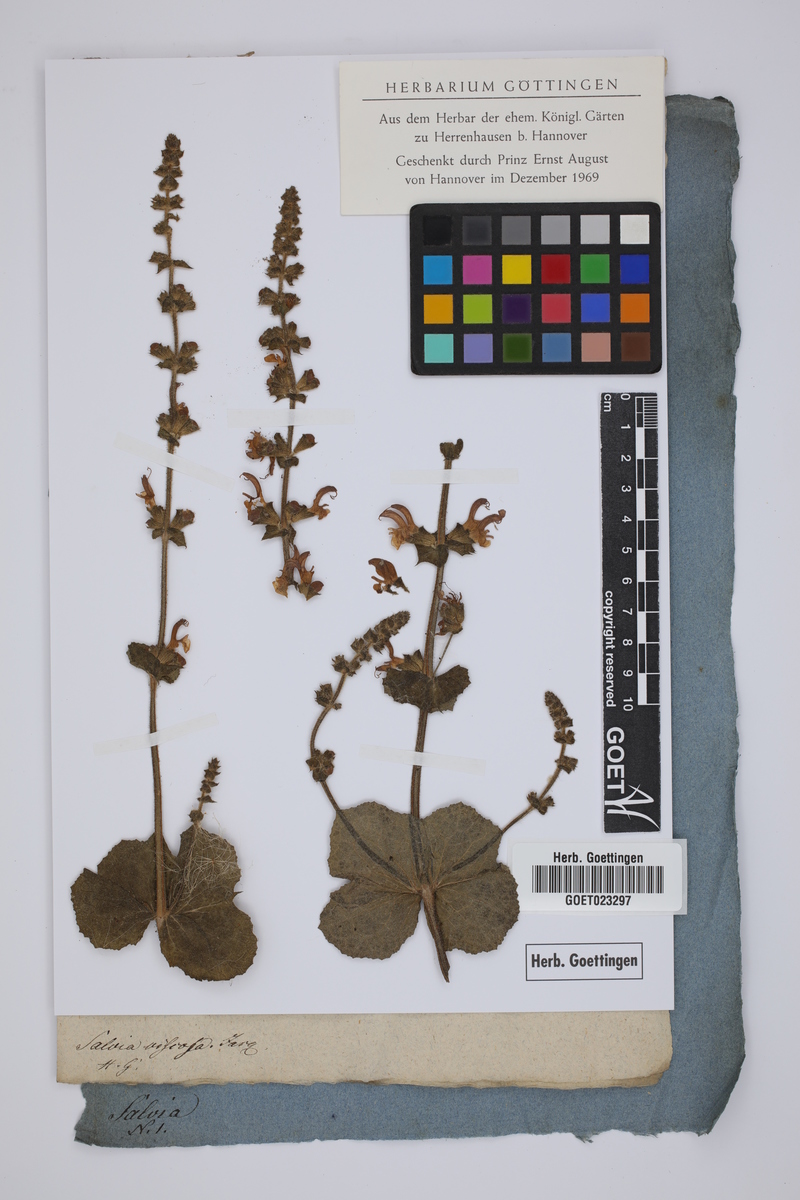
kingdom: Plantae
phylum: Tracheophyta
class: Magnoliopsida
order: Lamiales
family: Lamiaceae
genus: Salvia
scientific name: Salvia viscosa
